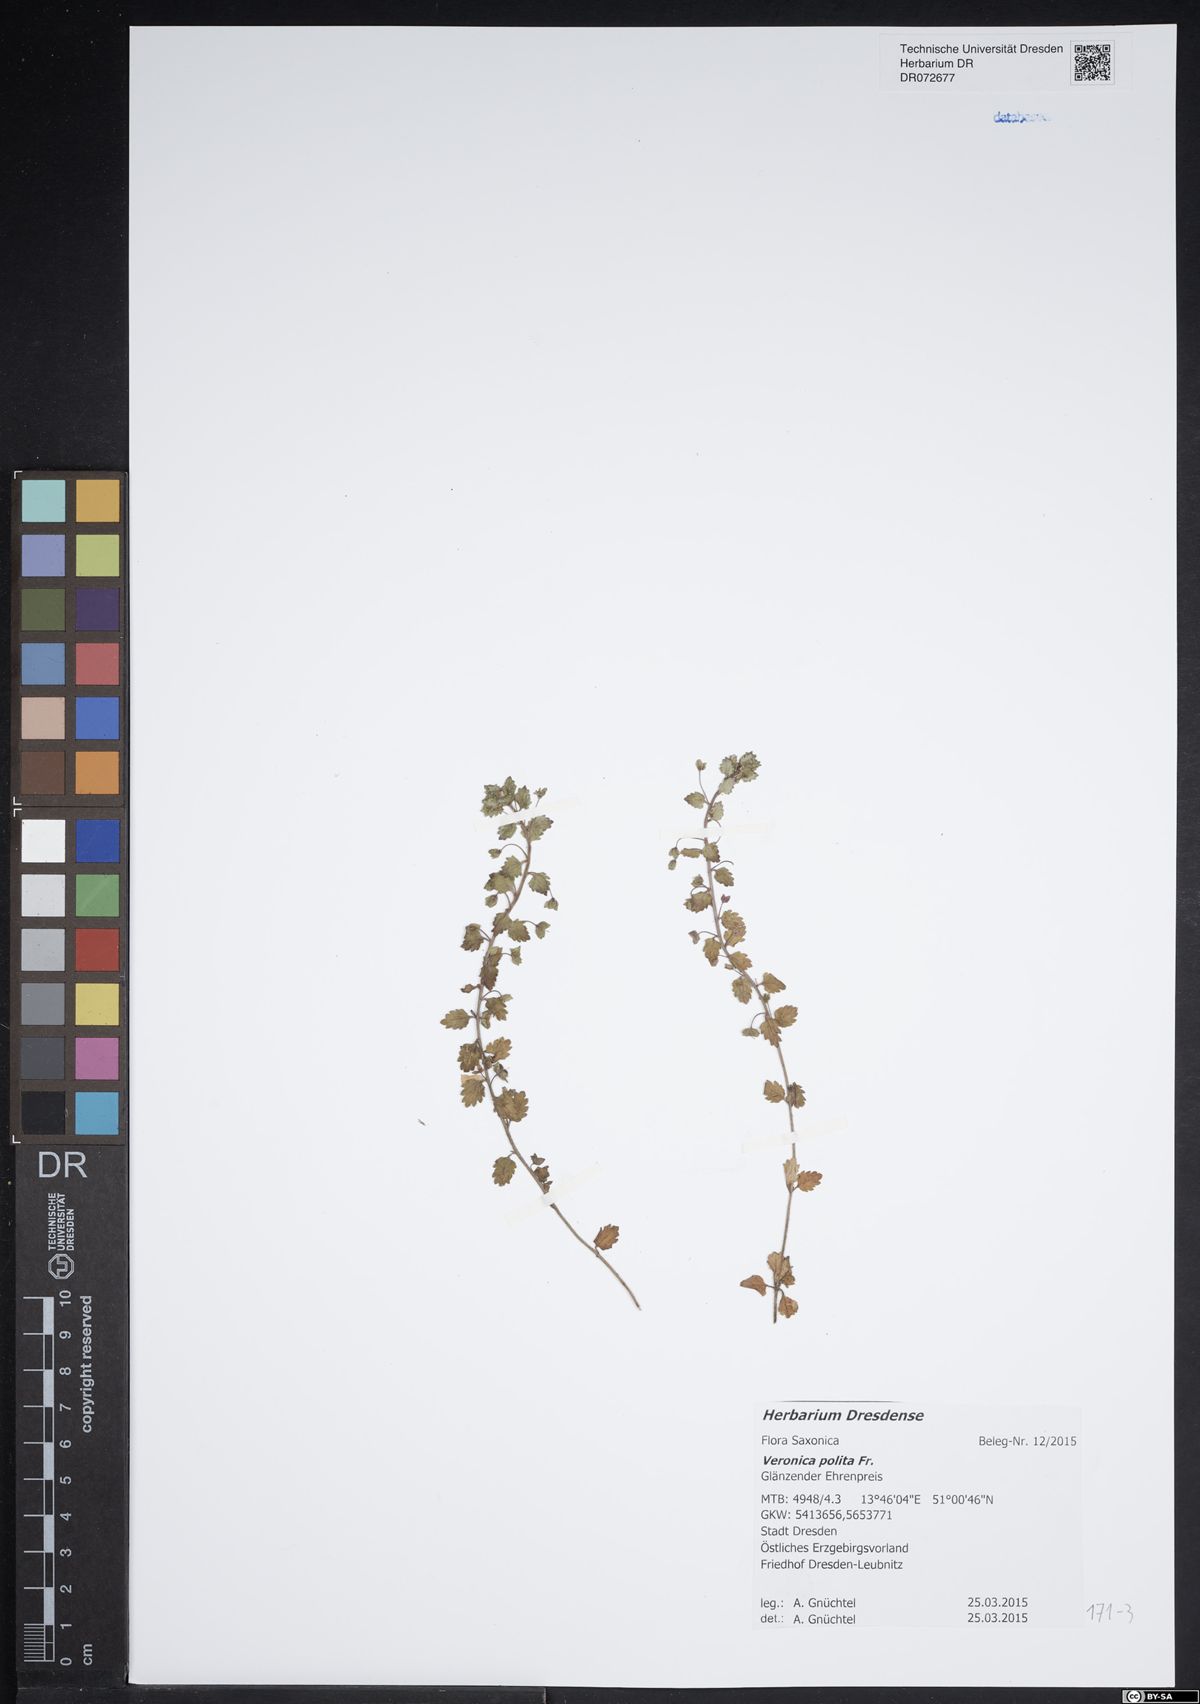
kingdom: Plantae
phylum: Tracheophyta
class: Magnoliopsida
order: Lamiales
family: Plantaginaceae
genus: Veronica
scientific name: Veronica polita
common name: Grey field-speedwell
